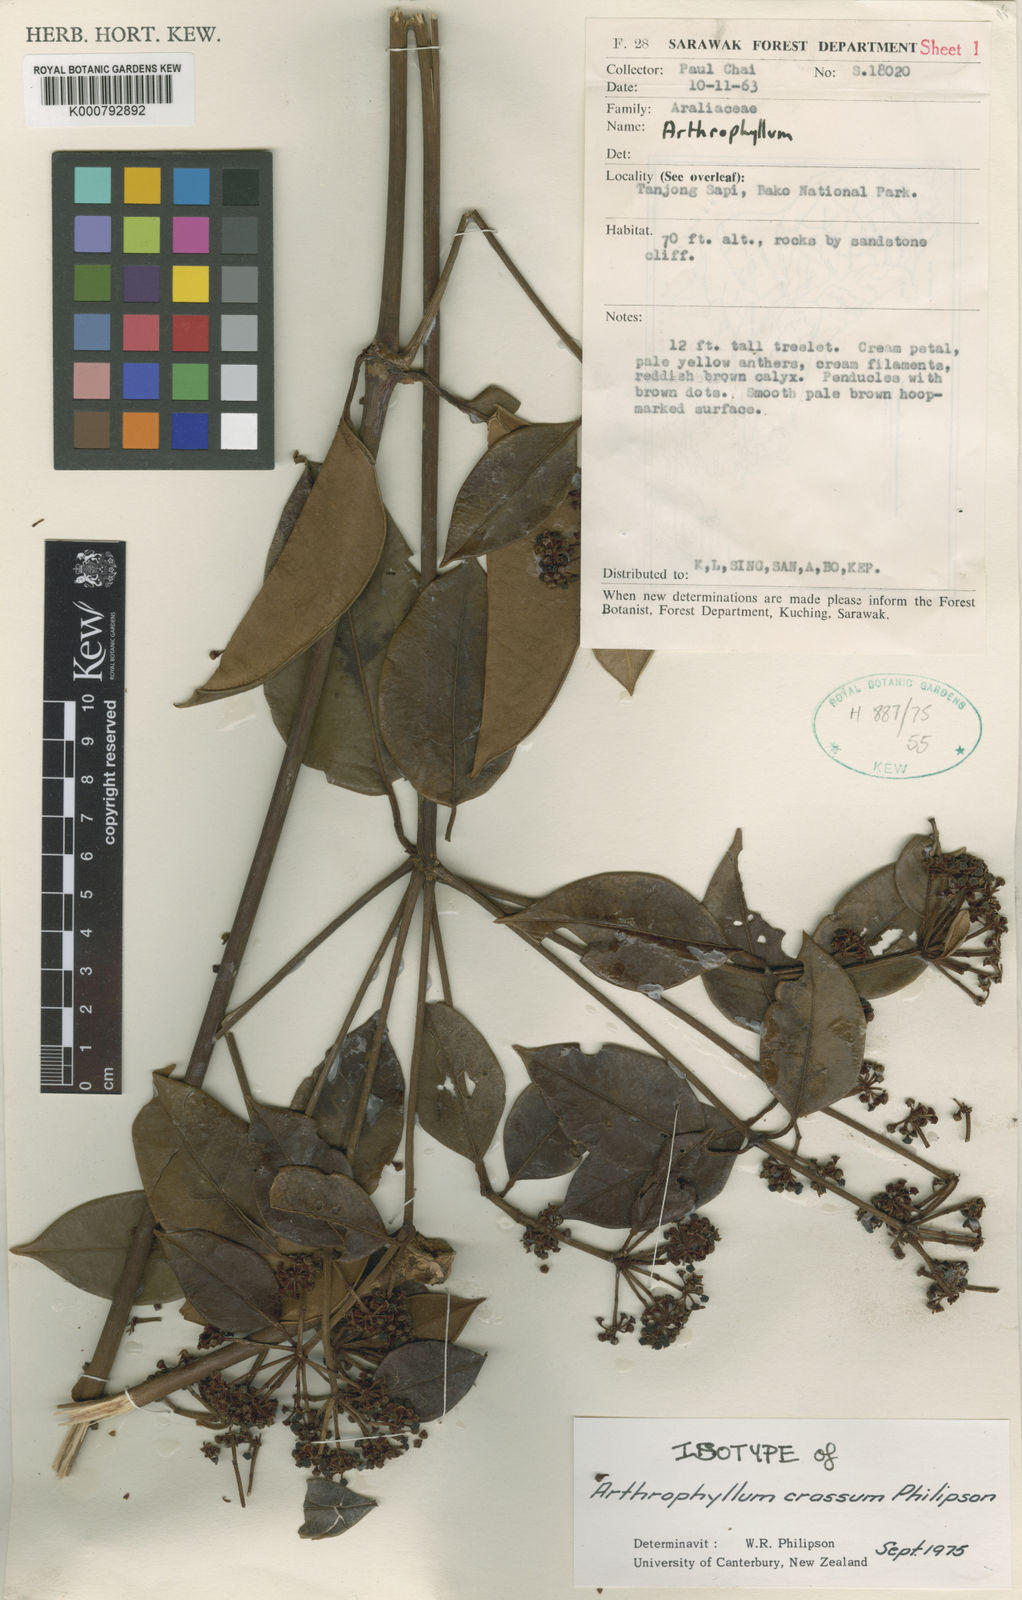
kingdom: Plantae
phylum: Tracheophyta
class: Magnoliopsida
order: Apiales
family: Araliaceae
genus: Polyscias
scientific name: Polyscias revoluta
